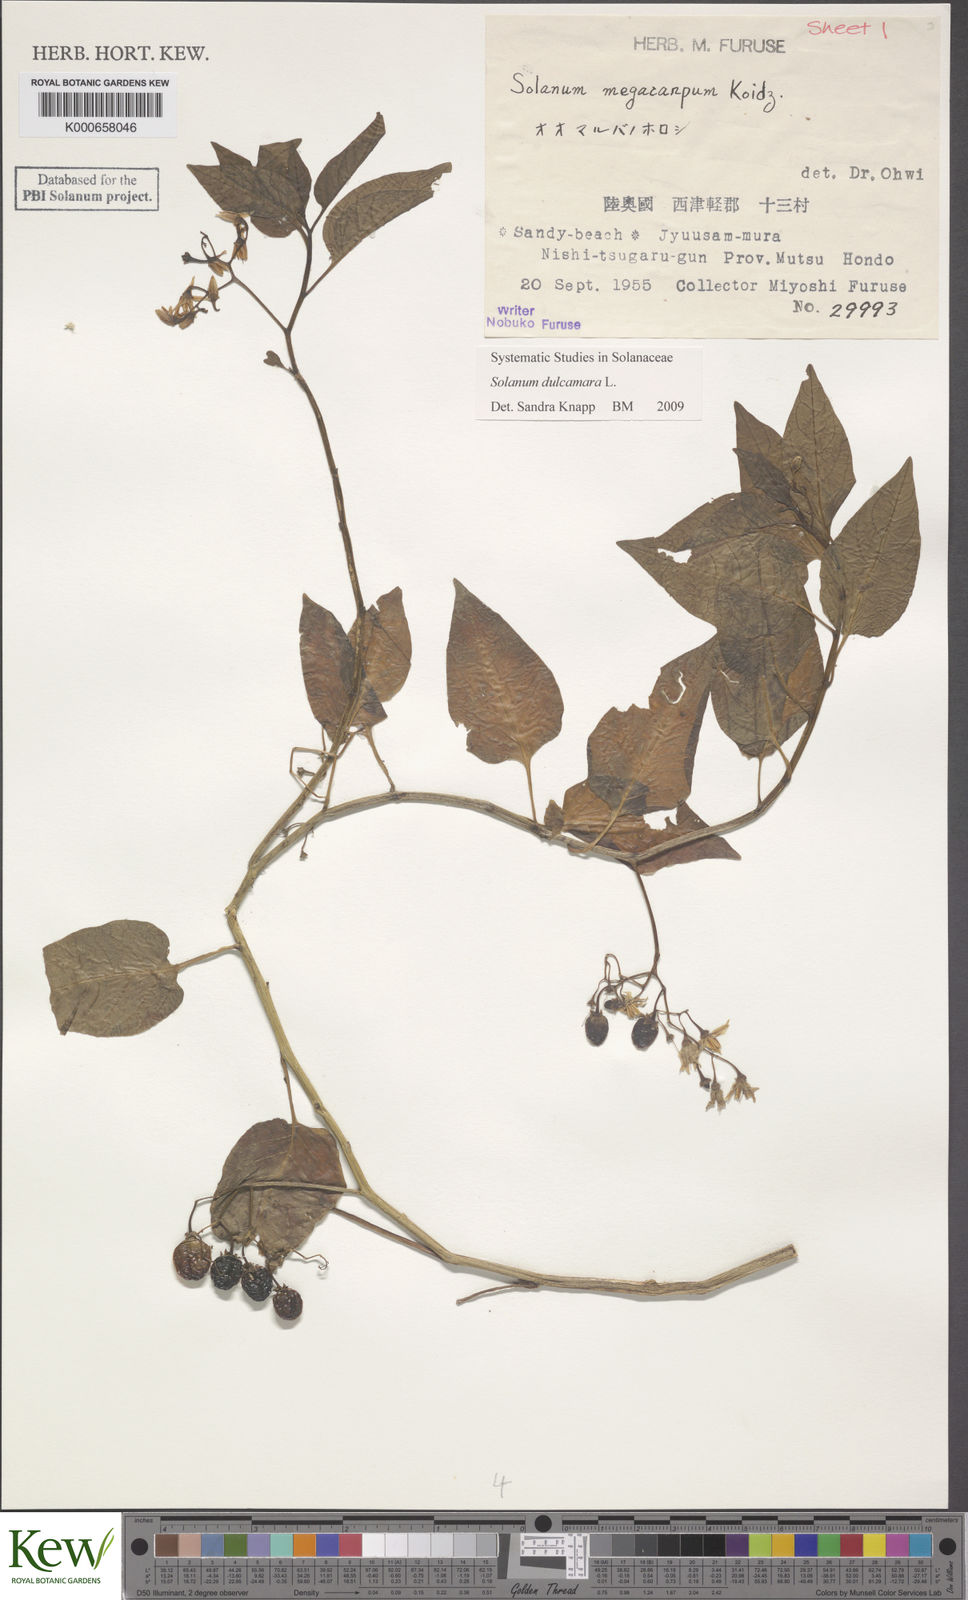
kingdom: Plantae
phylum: Tracheophyta
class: Magnoliopsida
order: Solanales
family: Solanaceae
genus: Solanum
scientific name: Solanum dulcamara
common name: Climbing nightshade
